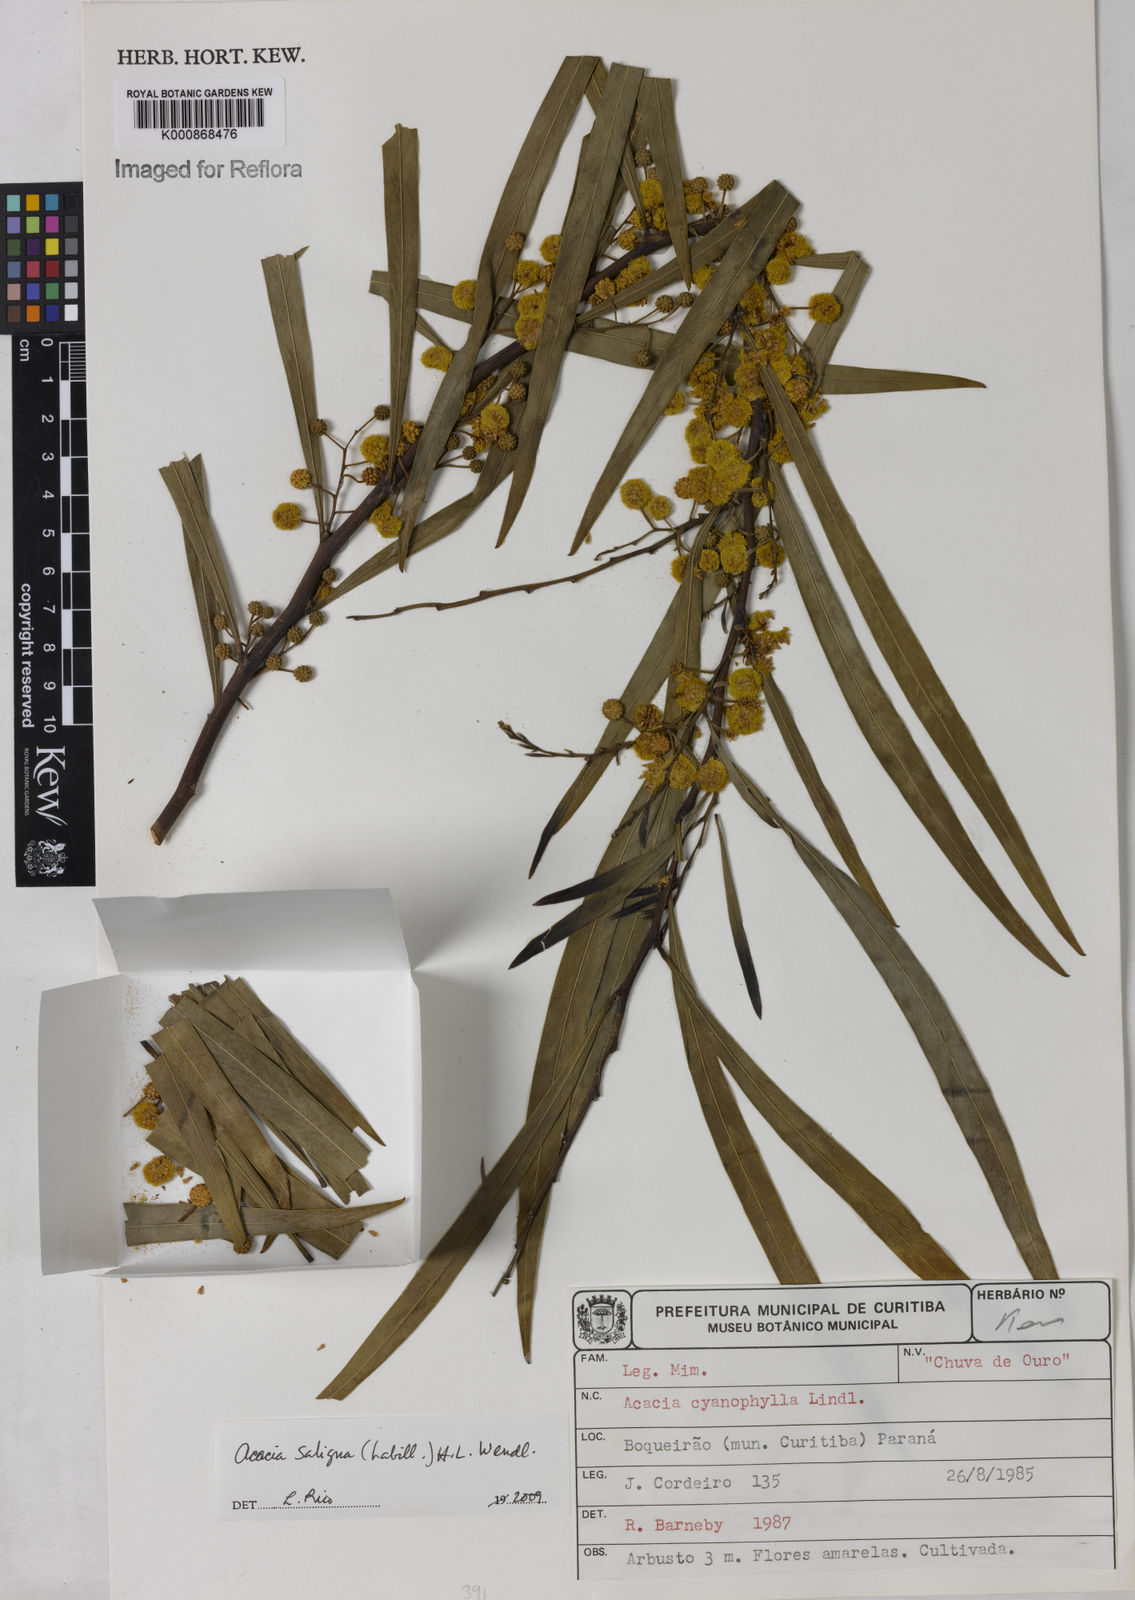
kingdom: Plantae
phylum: Tracheophyta
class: Magnoliopsida
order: Fabales
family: Fabaceae
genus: Acacia
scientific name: Acacia saligna
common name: Orange wattle
